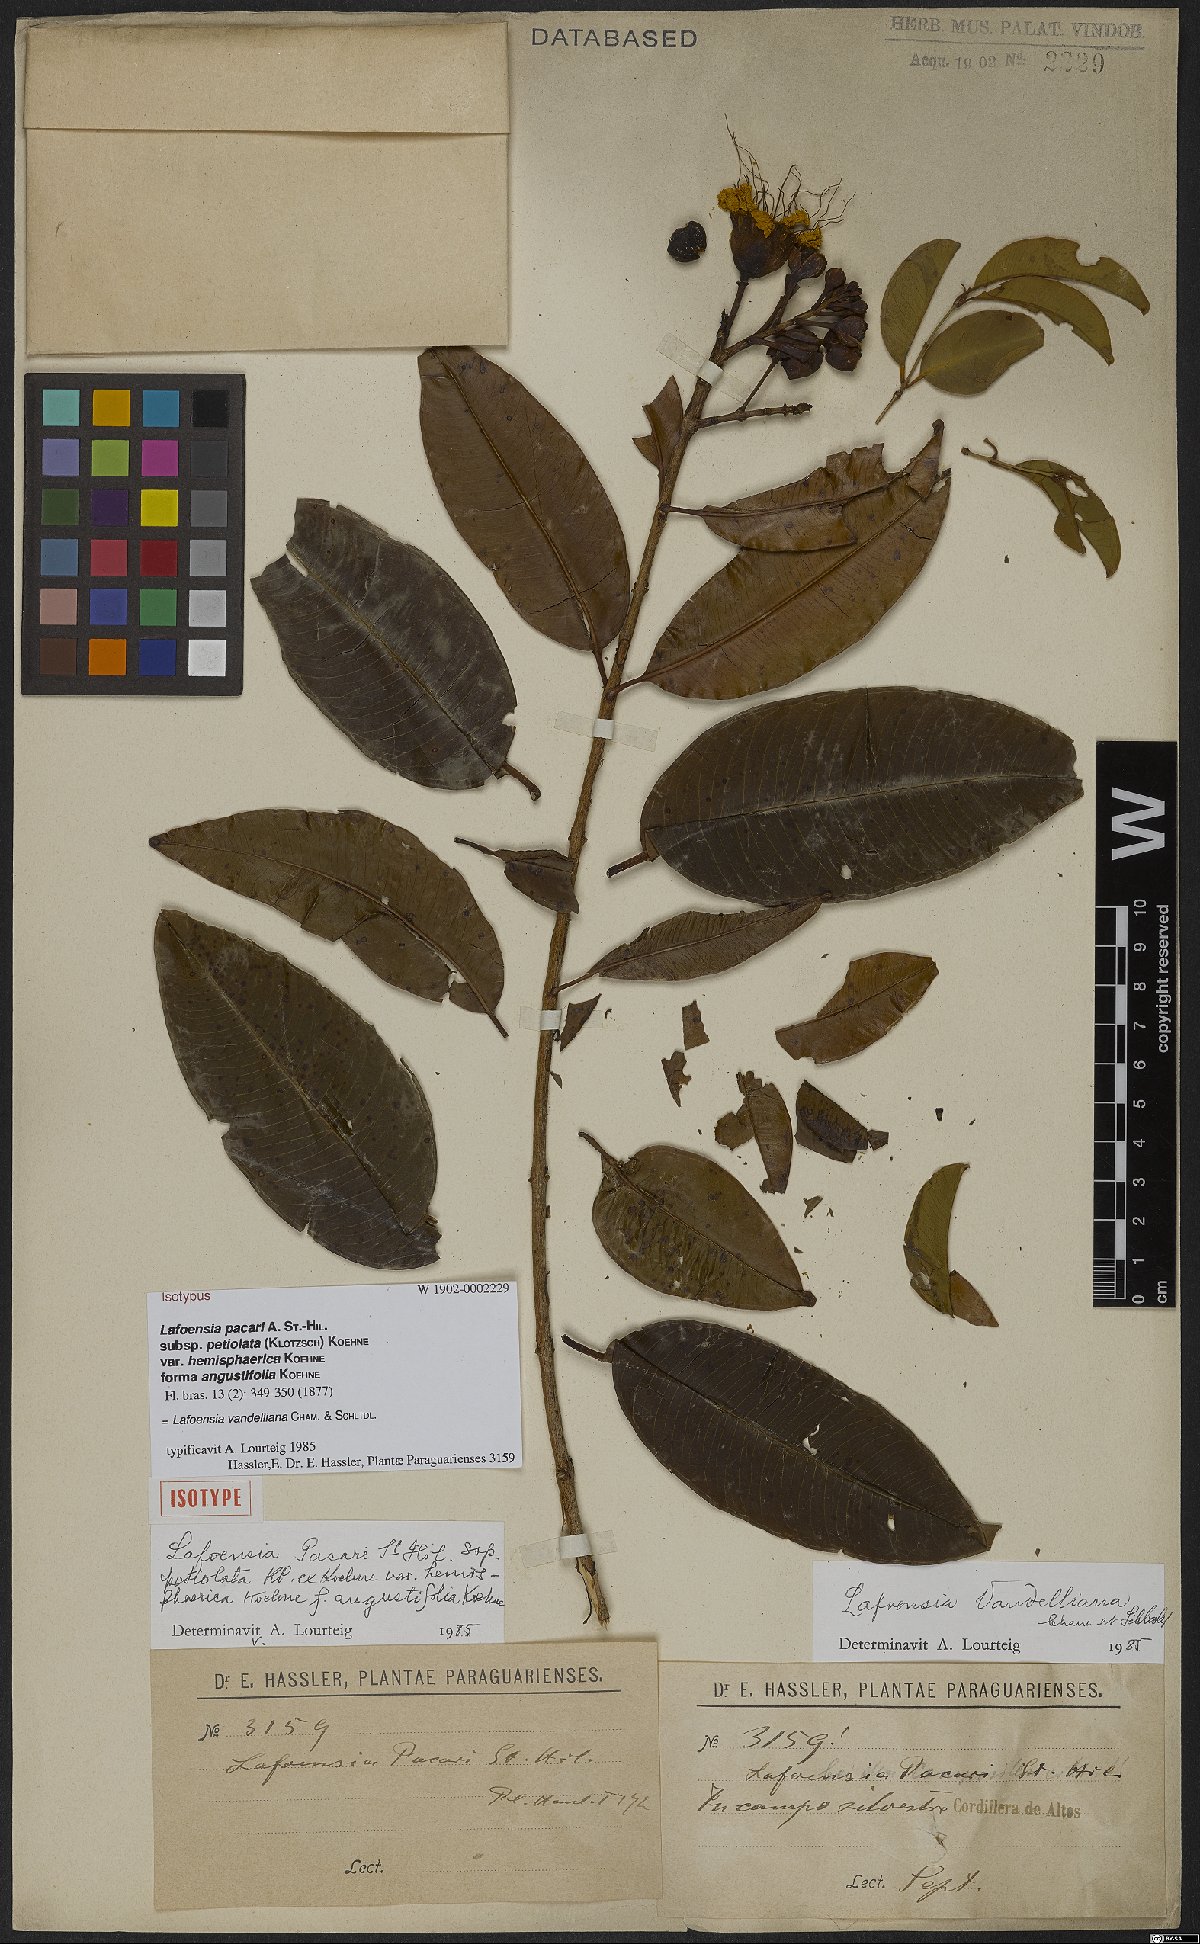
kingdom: Plantae
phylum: Tracheophyta
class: Magnoliopsida
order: Myrtales
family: Lythraceae
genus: Lafoensia
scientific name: Lafoensia vandelliana
